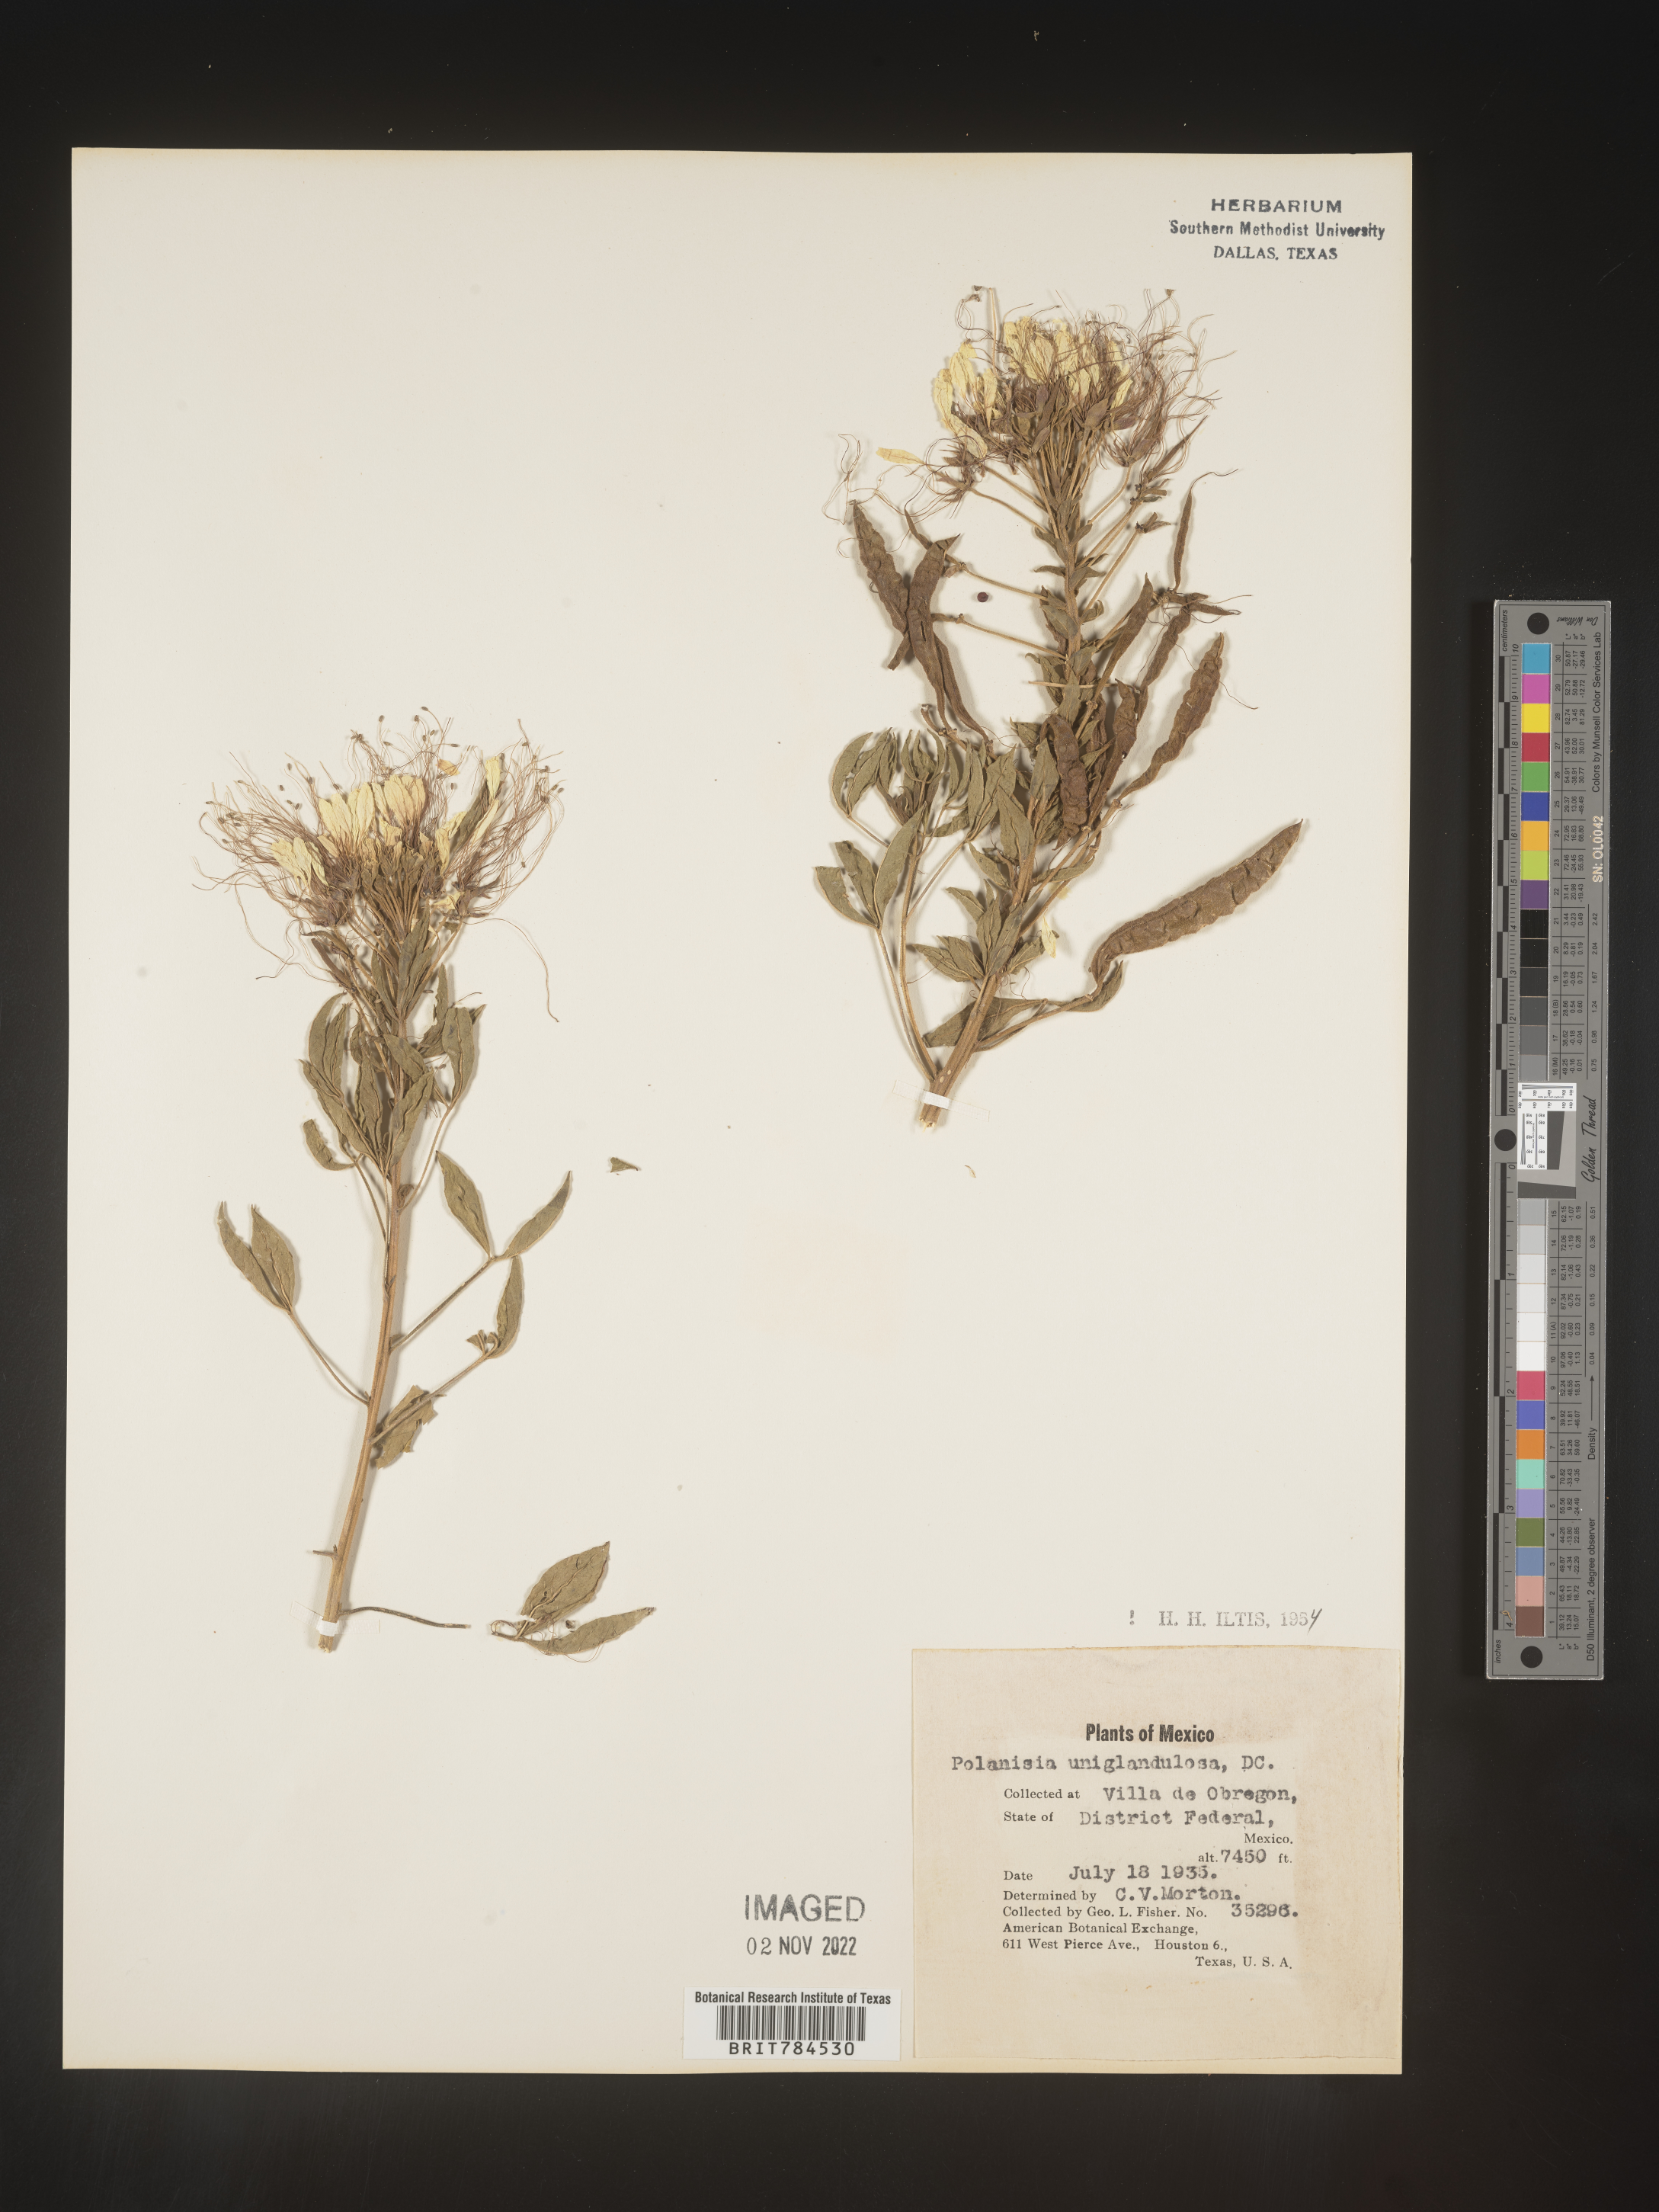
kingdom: Plantae
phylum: Tracheophyta
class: Magnoliopsida
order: Brassicales
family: Cleomaceae
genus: Polanisia
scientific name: Polanisia
